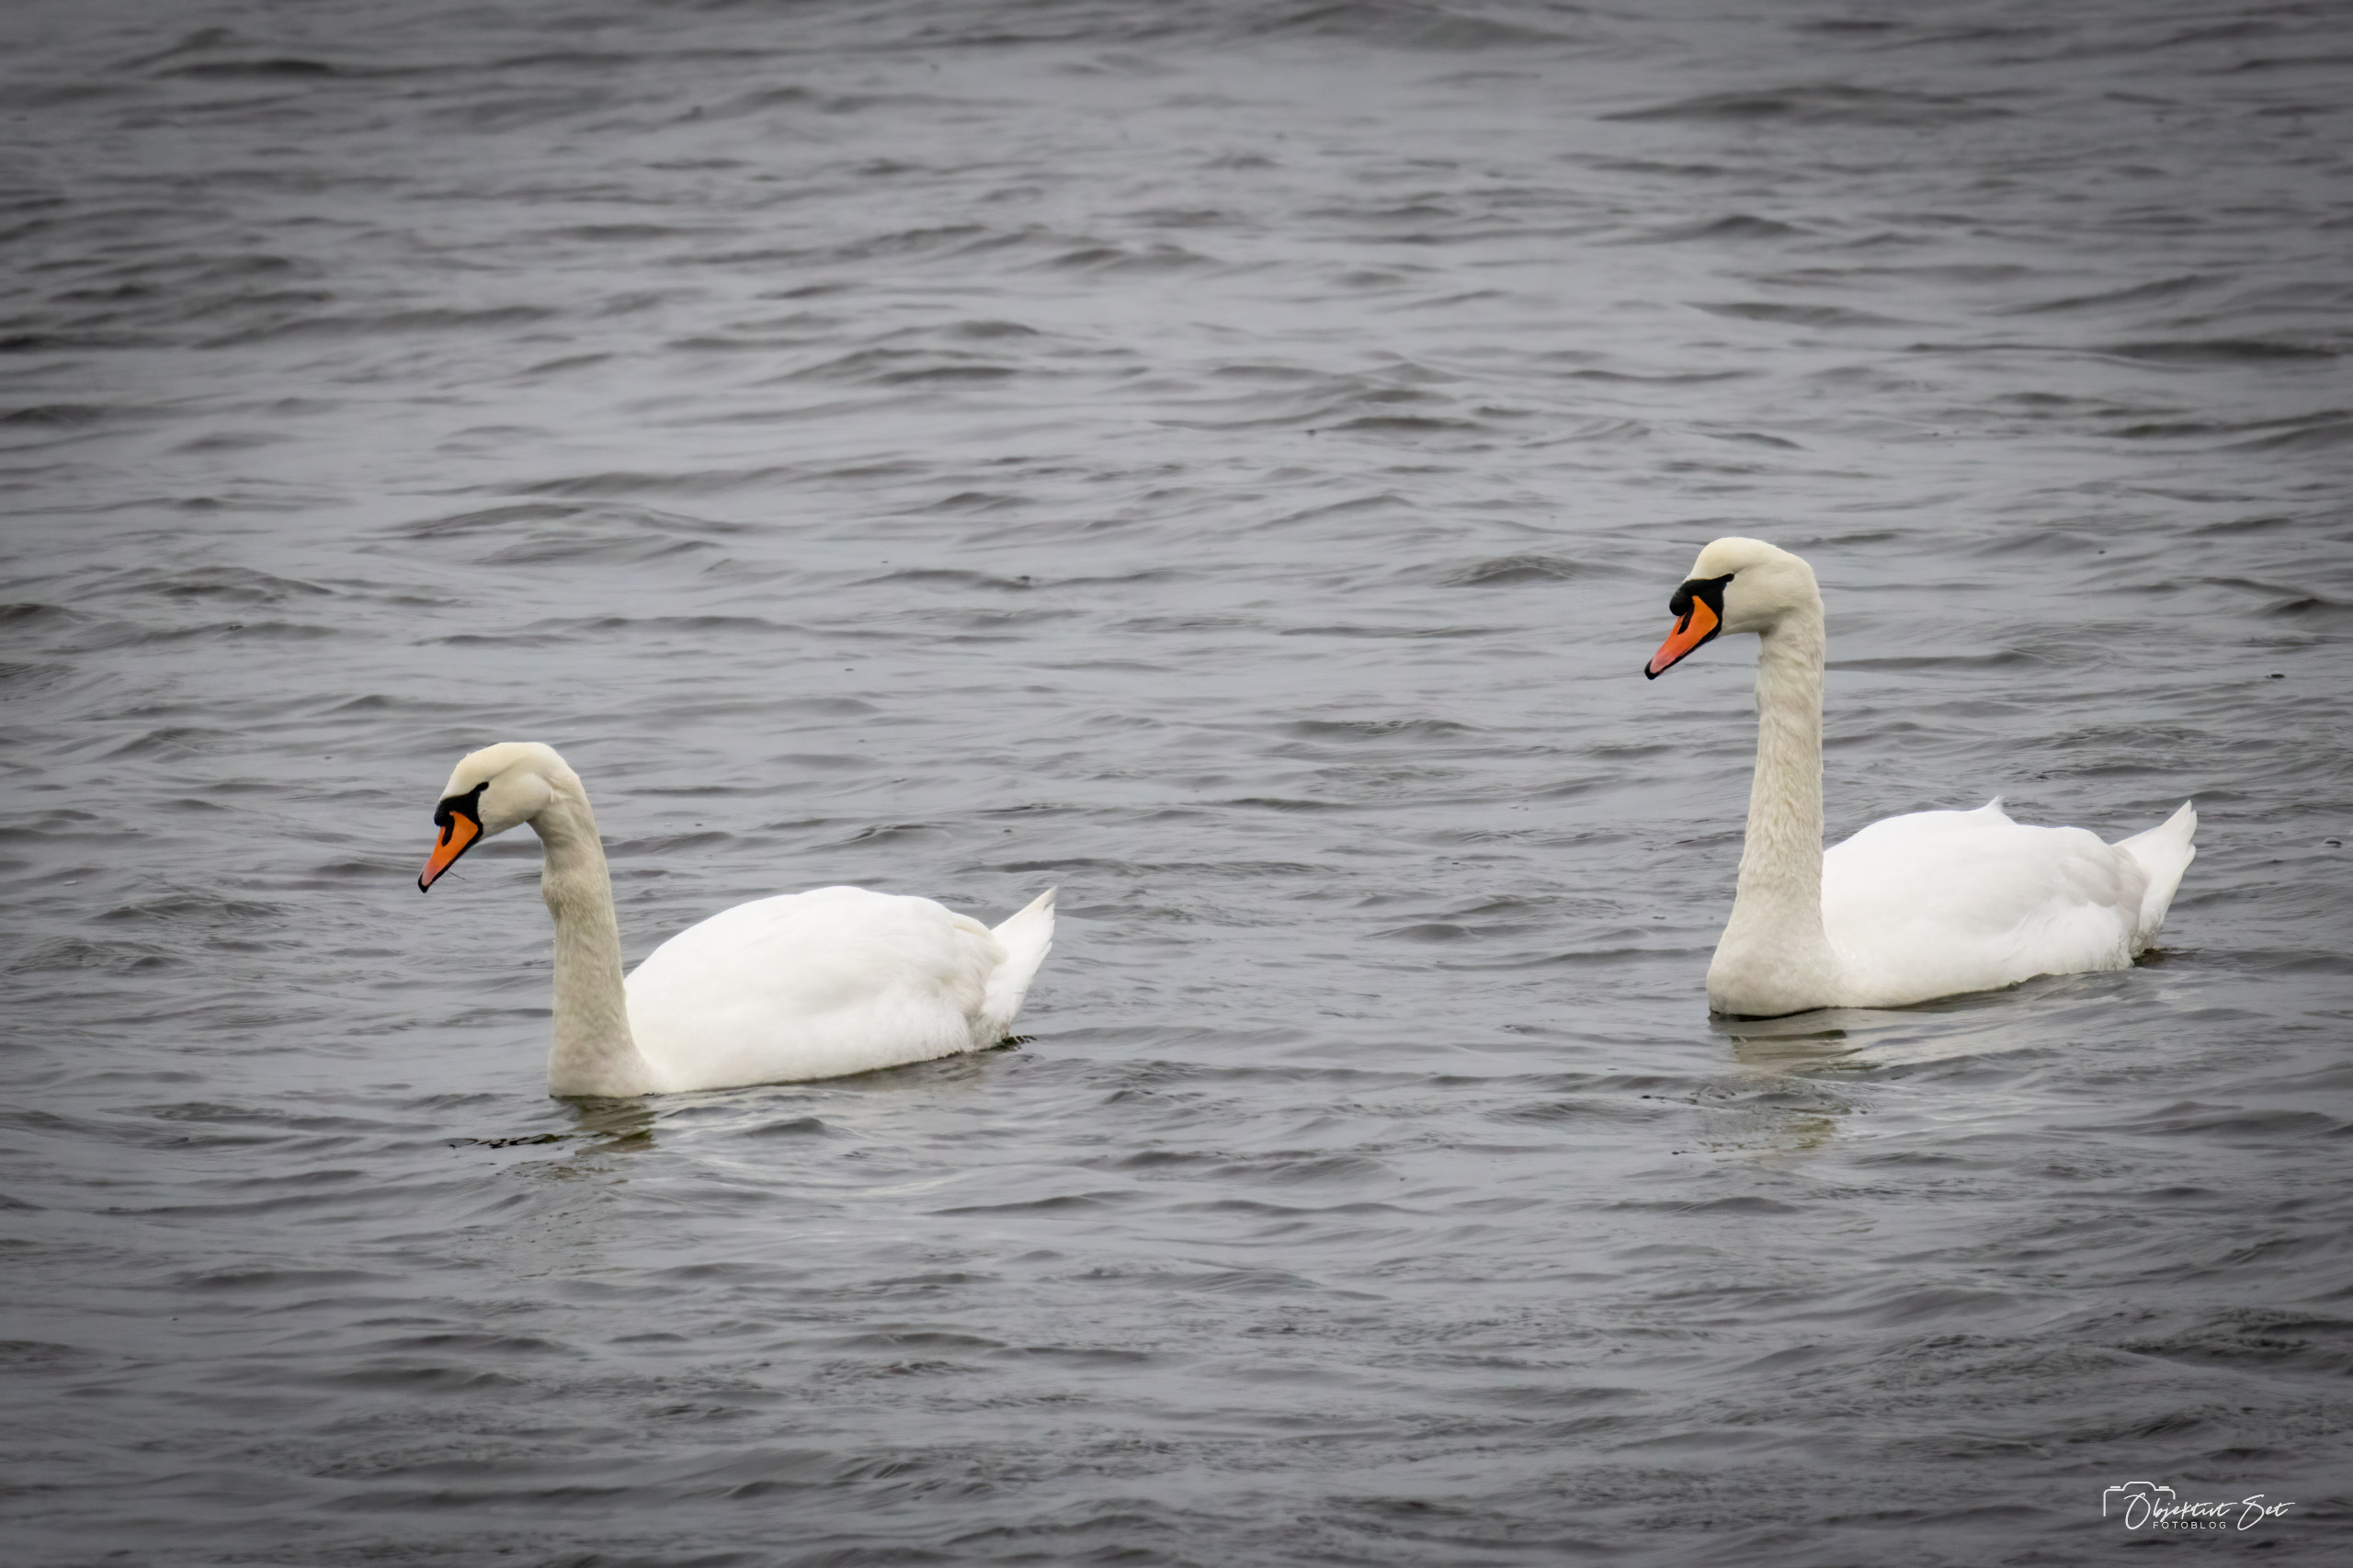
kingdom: Animalia
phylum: Chordata
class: Aves
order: Anseriformes
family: Anatidae
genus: Cygnus
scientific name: Cygnus olor
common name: Knopsvane
